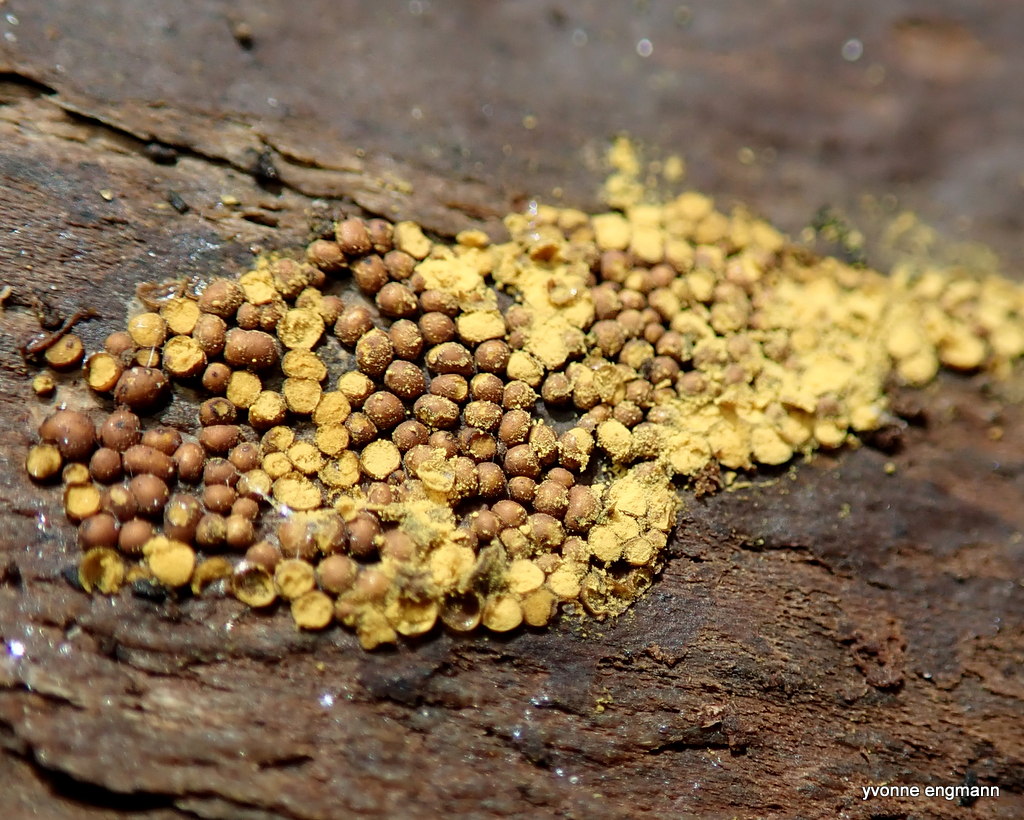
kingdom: Protozoa
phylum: Mycetozoa
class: Myxomycetes
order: Trichiales
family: Trichiaceae
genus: Perichaena
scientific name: Perichaena corticalis
